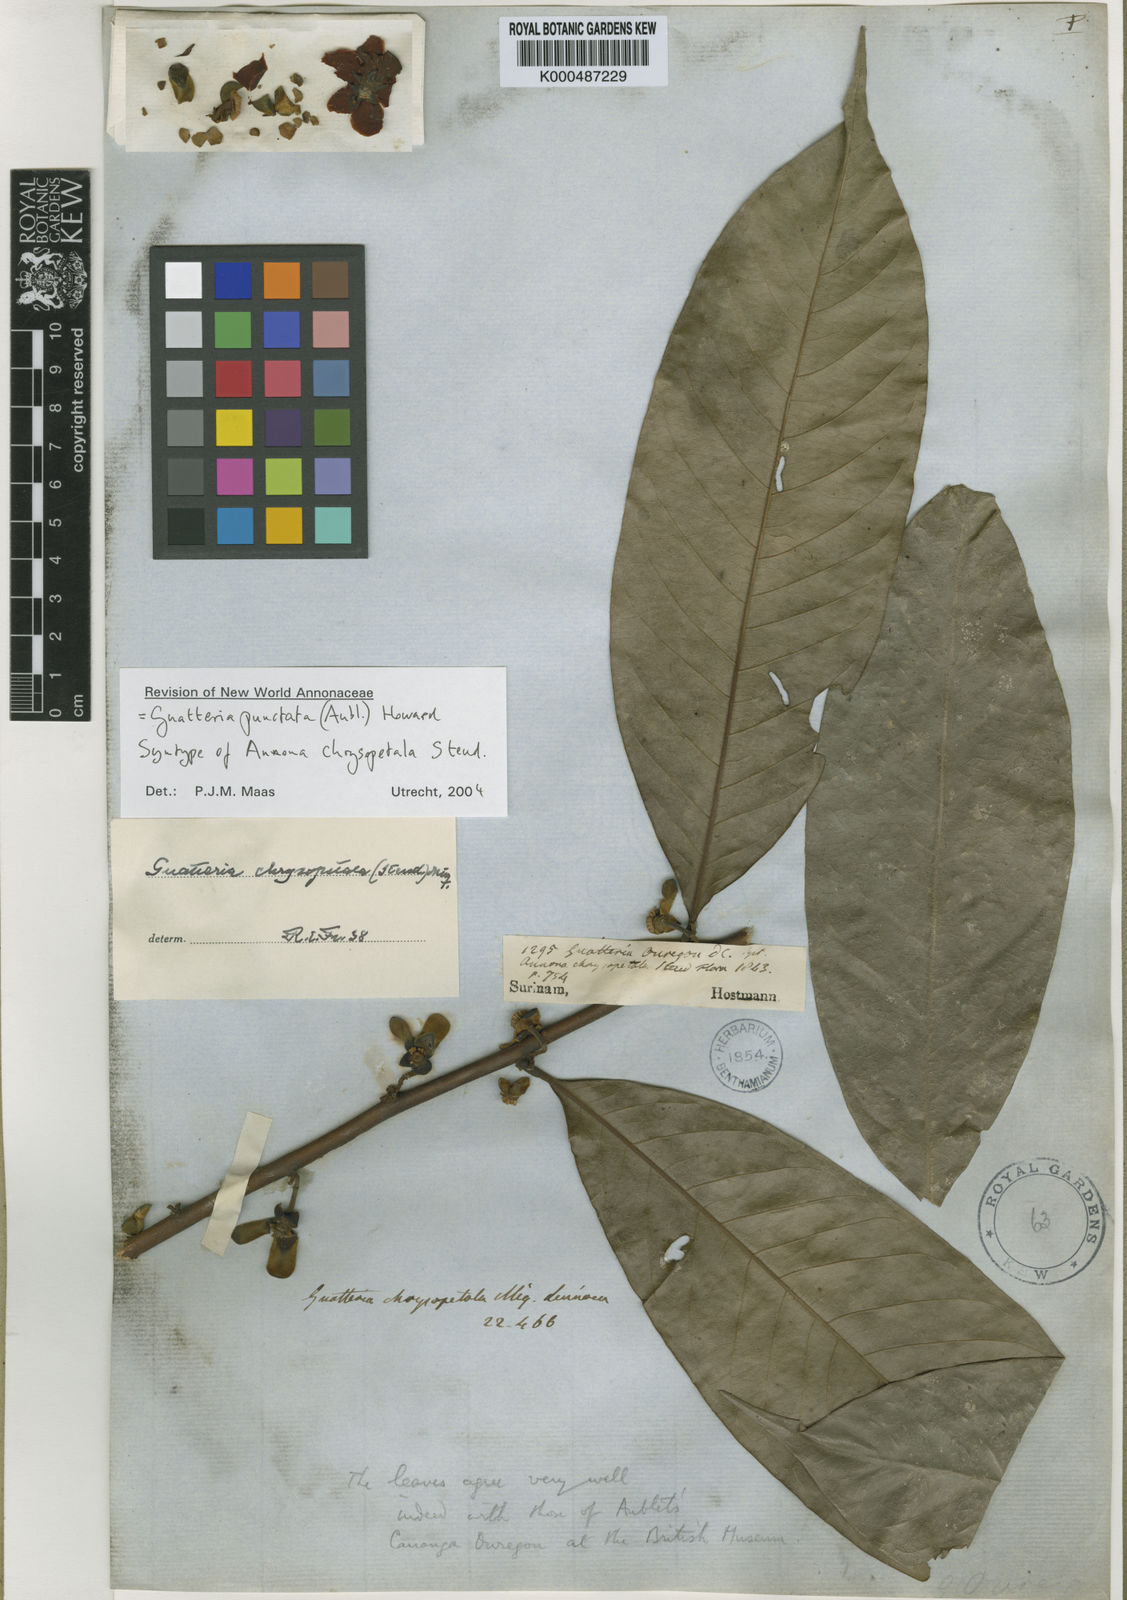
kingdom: Plantae
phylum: Tracheophyta
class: Magnoliopsida
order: Magnoliales
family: Annonaceae
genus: Guatteria
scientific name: Guatteria punctata
